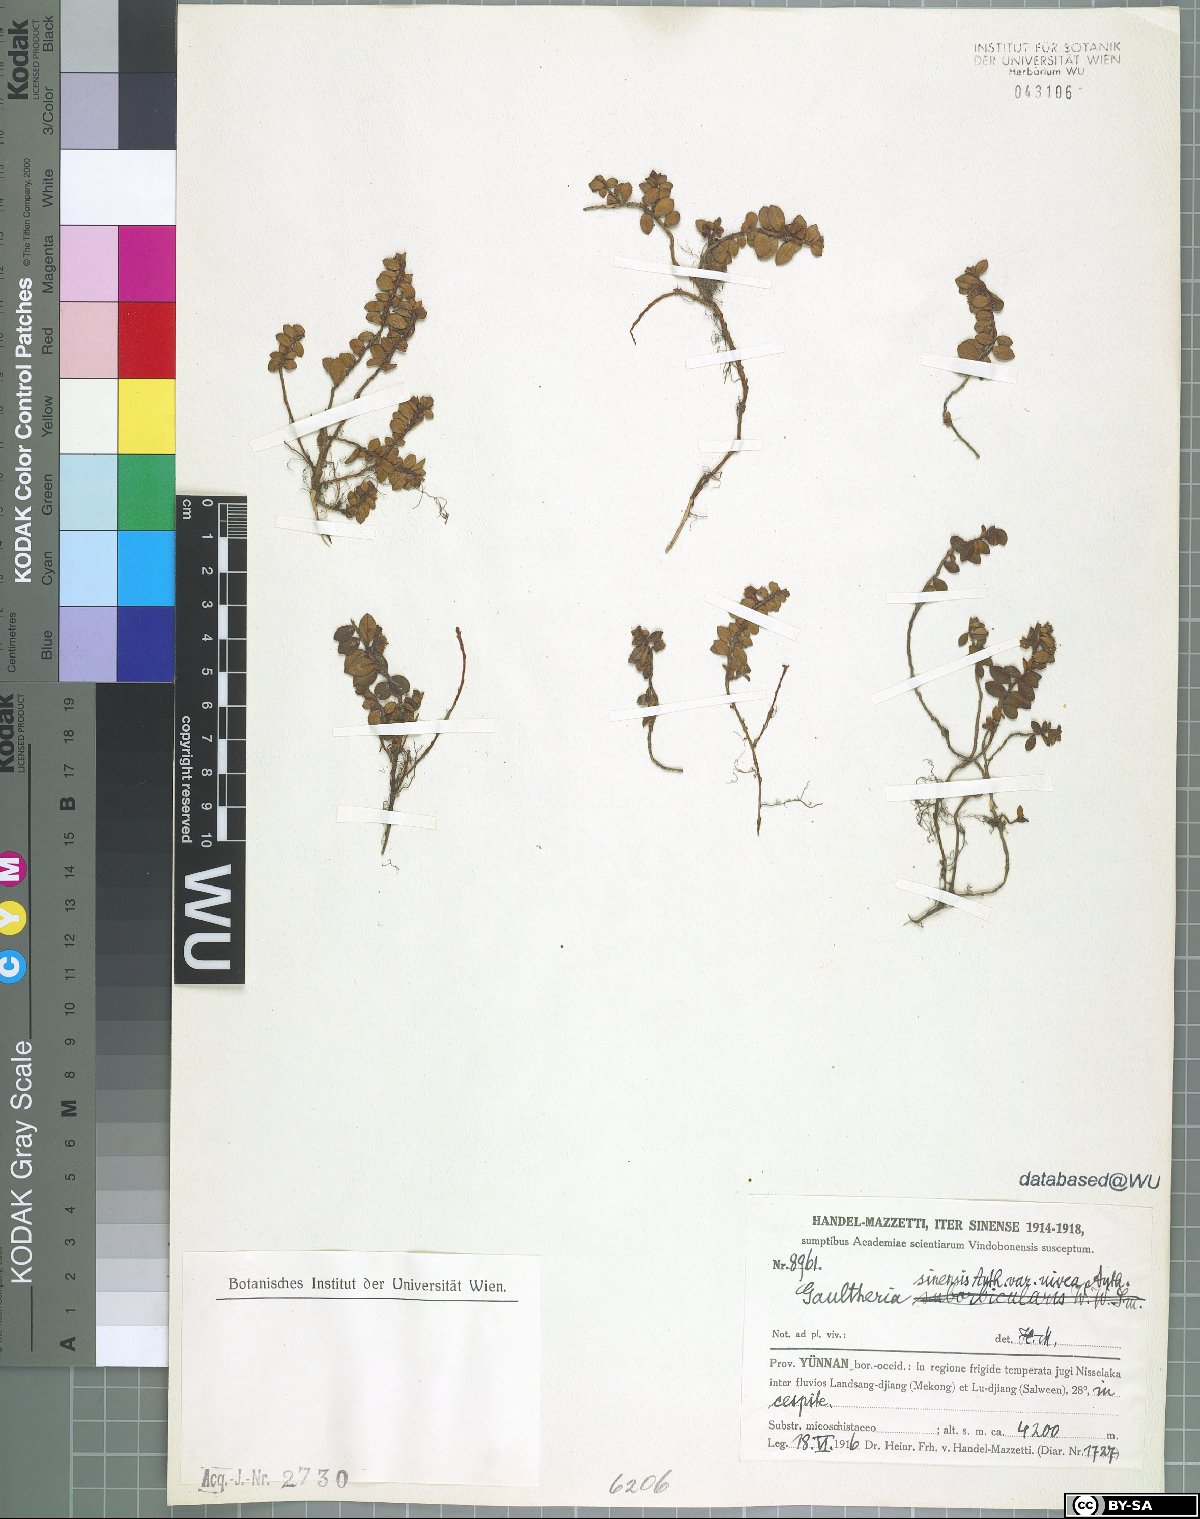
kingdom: Plantae
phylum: Tracheophyta
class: Magnoliopsida
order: Ericales
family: Ericaceae
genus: Gaultheria
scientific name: Gaultheria nivea
